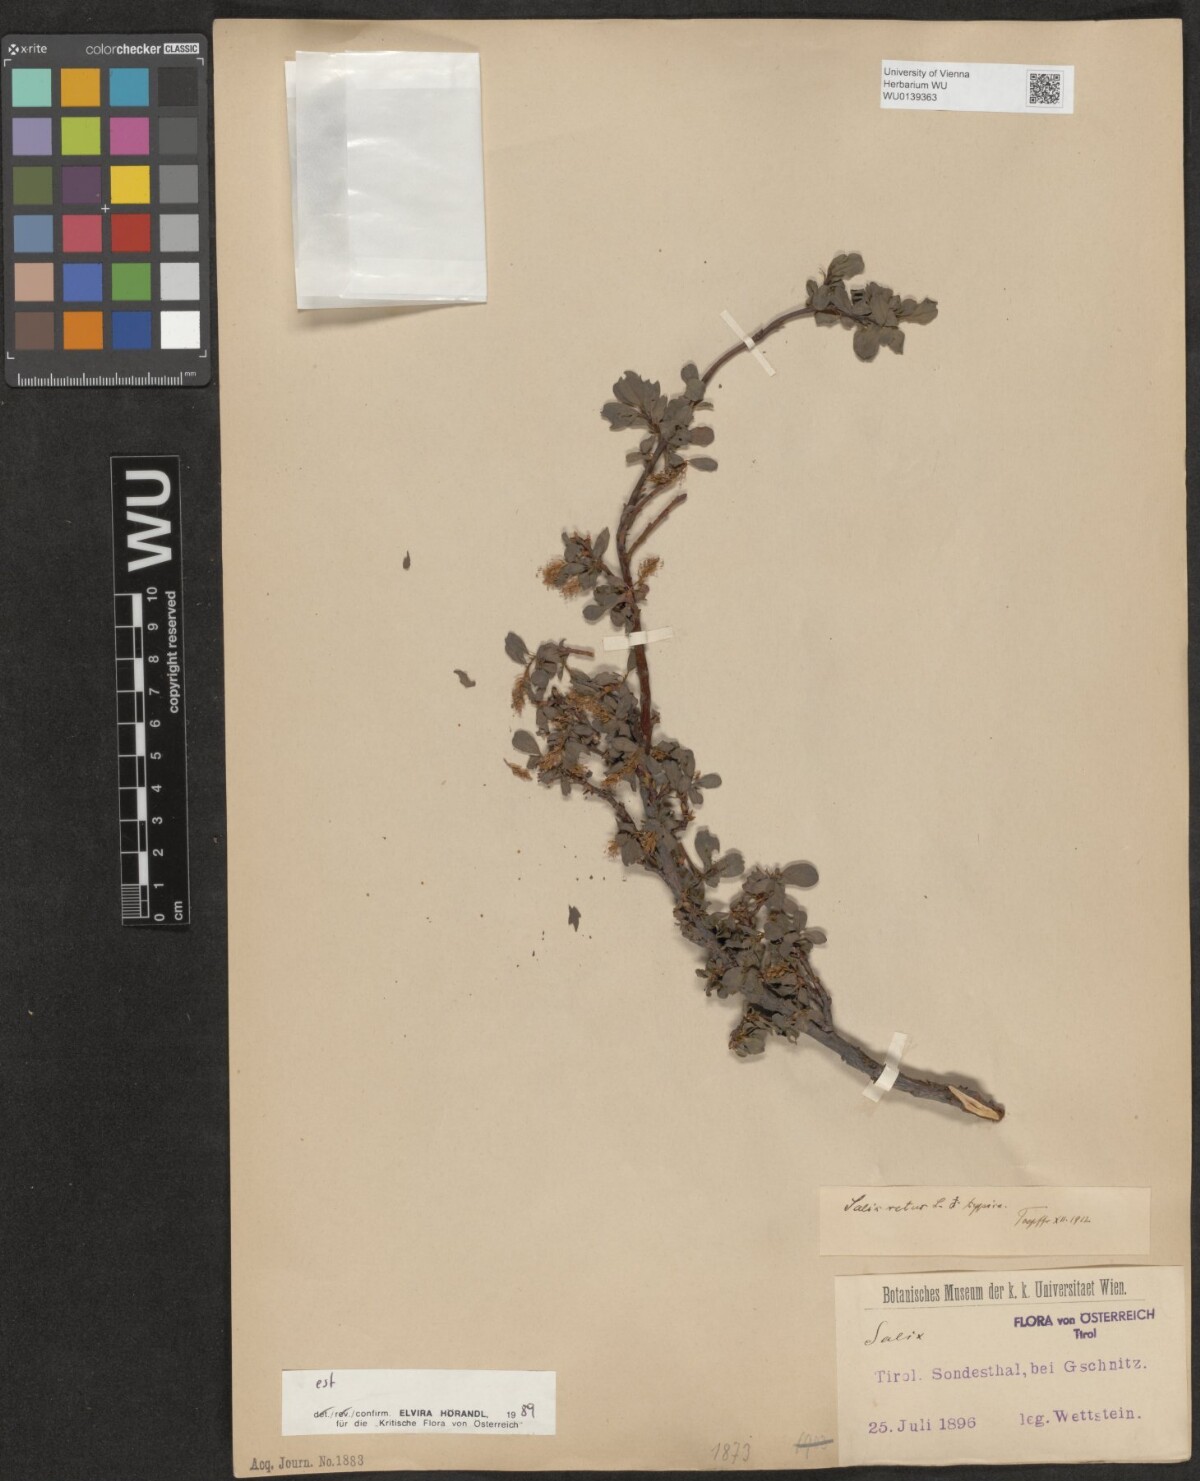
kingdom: Plantae
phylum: Tracheophyta
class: Magnoliopsida
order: Malpighiales
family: Salicaceae
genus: Salix
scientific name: Salix retusa
